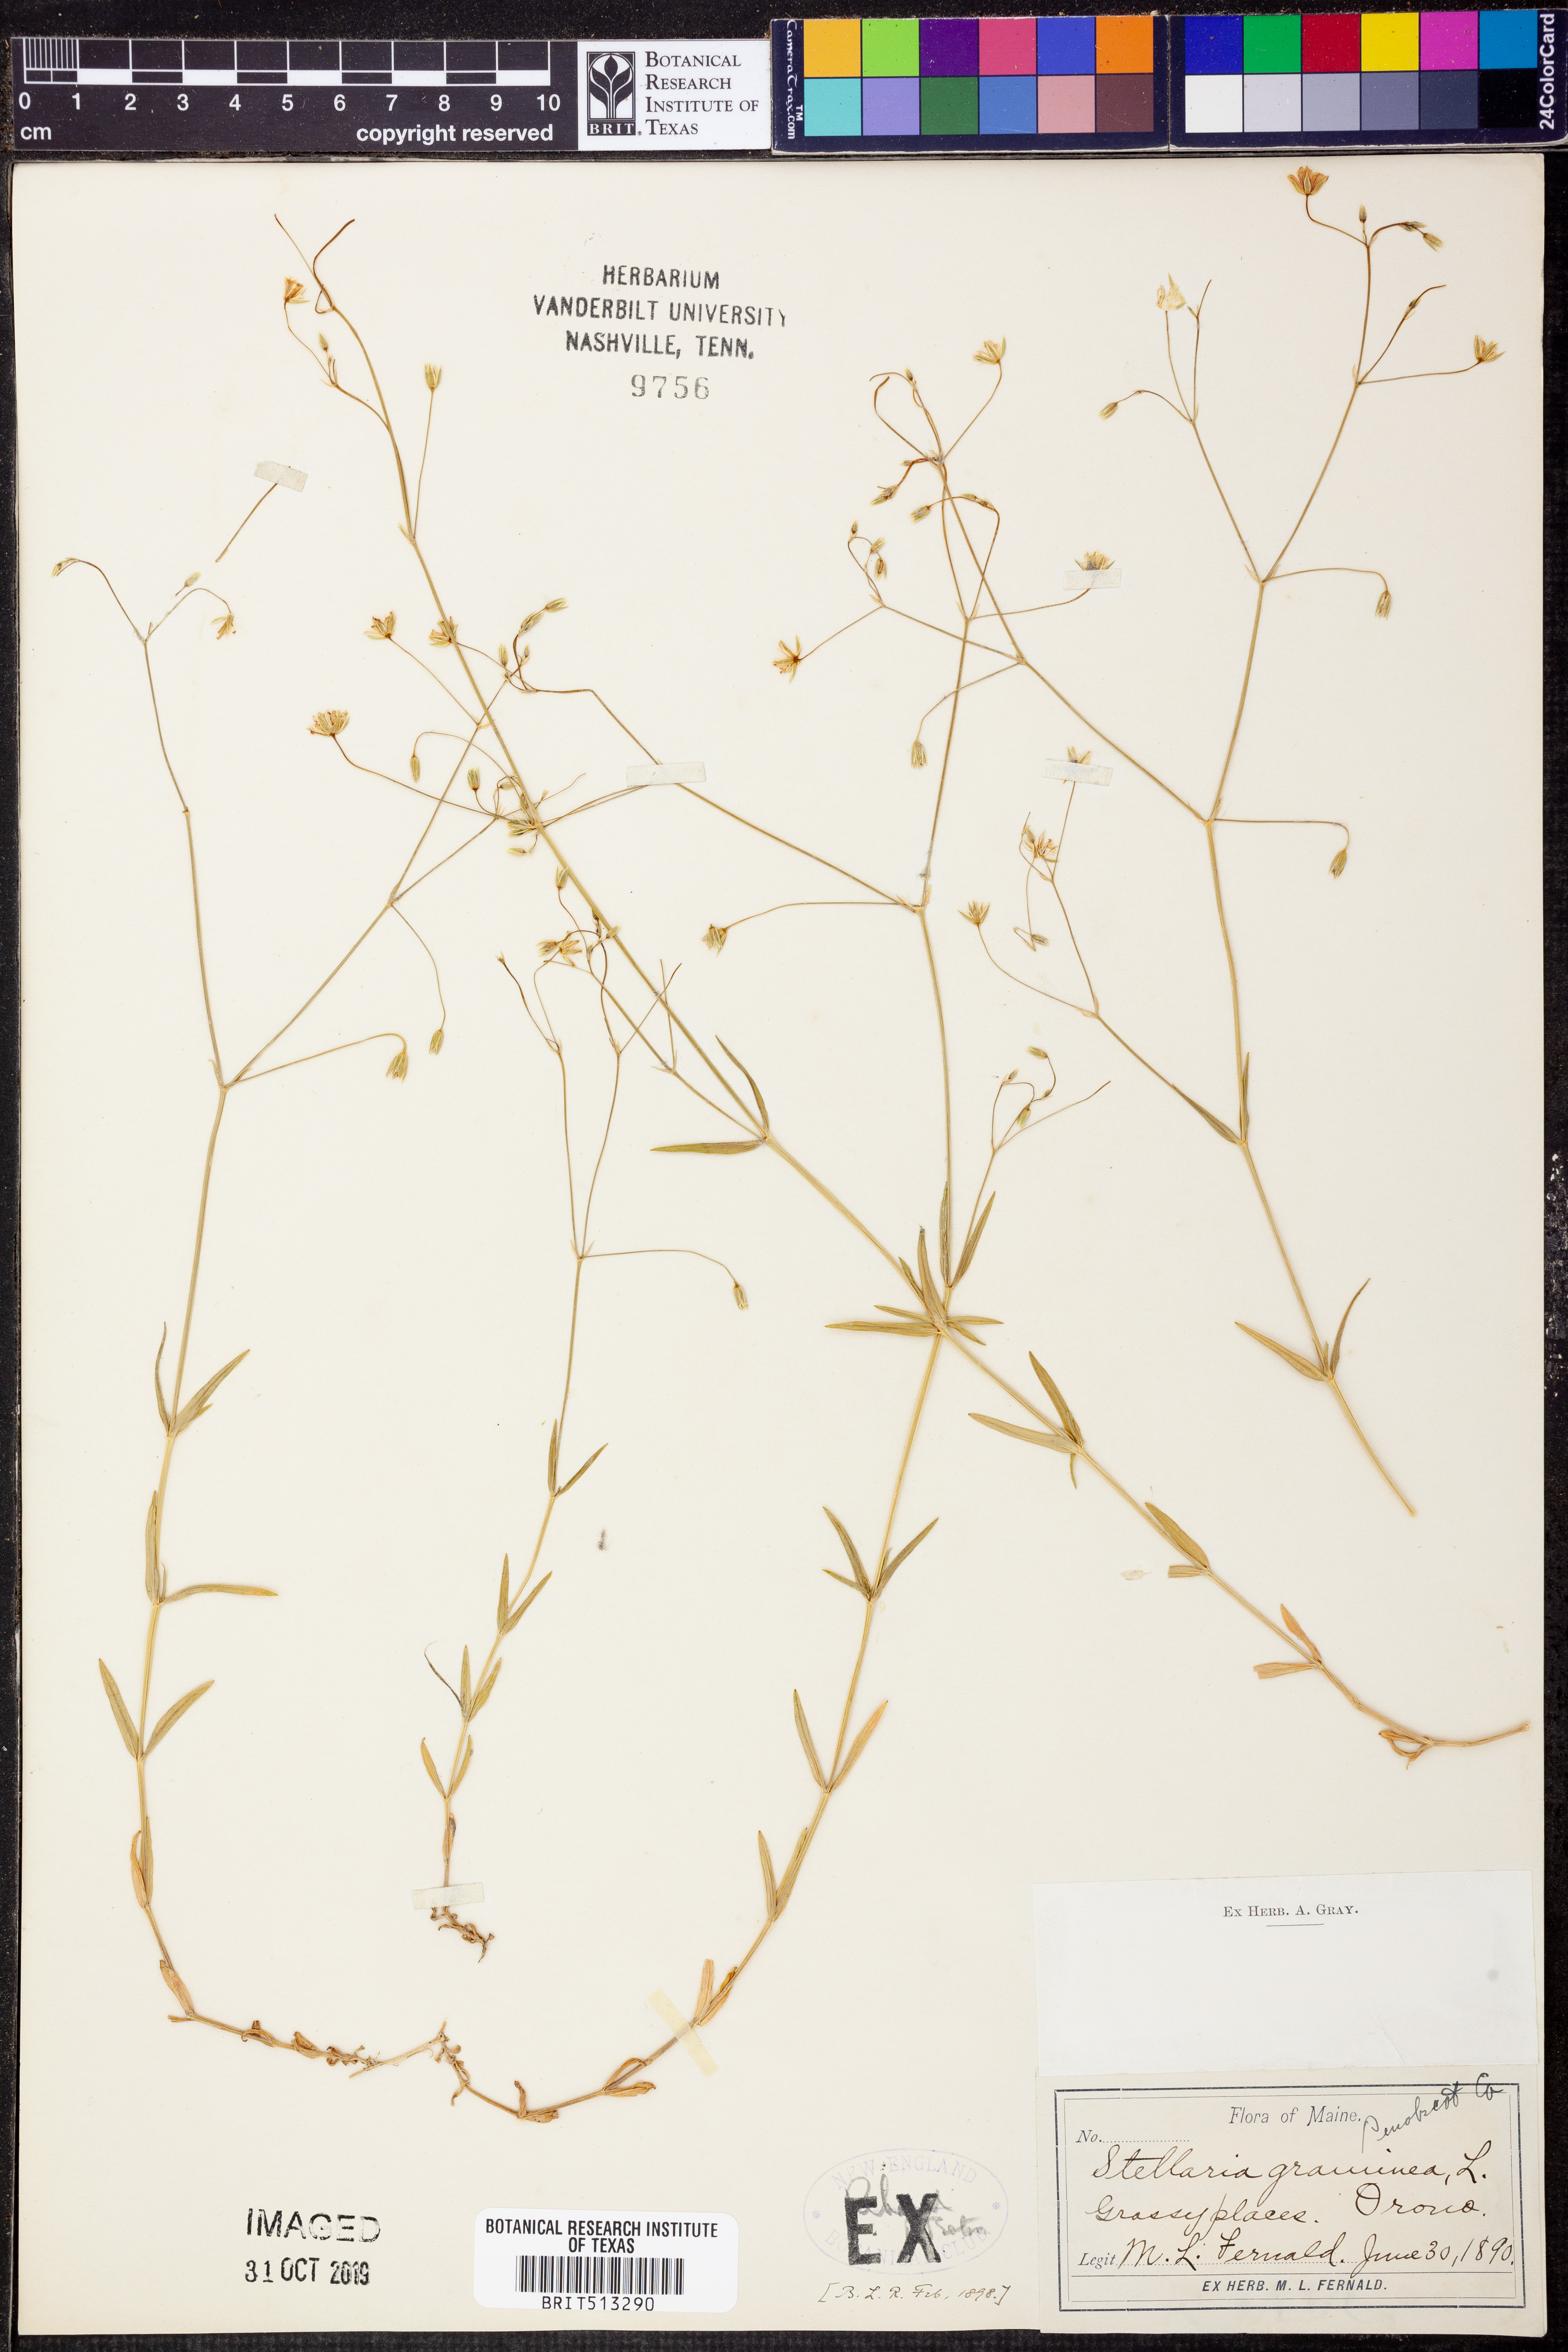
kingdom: Plantae
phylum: Tracheophyta
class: Magnoliopsida
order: Caryophyllales
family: Caryophyllaceae
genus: Stellaria
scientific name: Stellaria graminea
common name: Grass-like starwort
